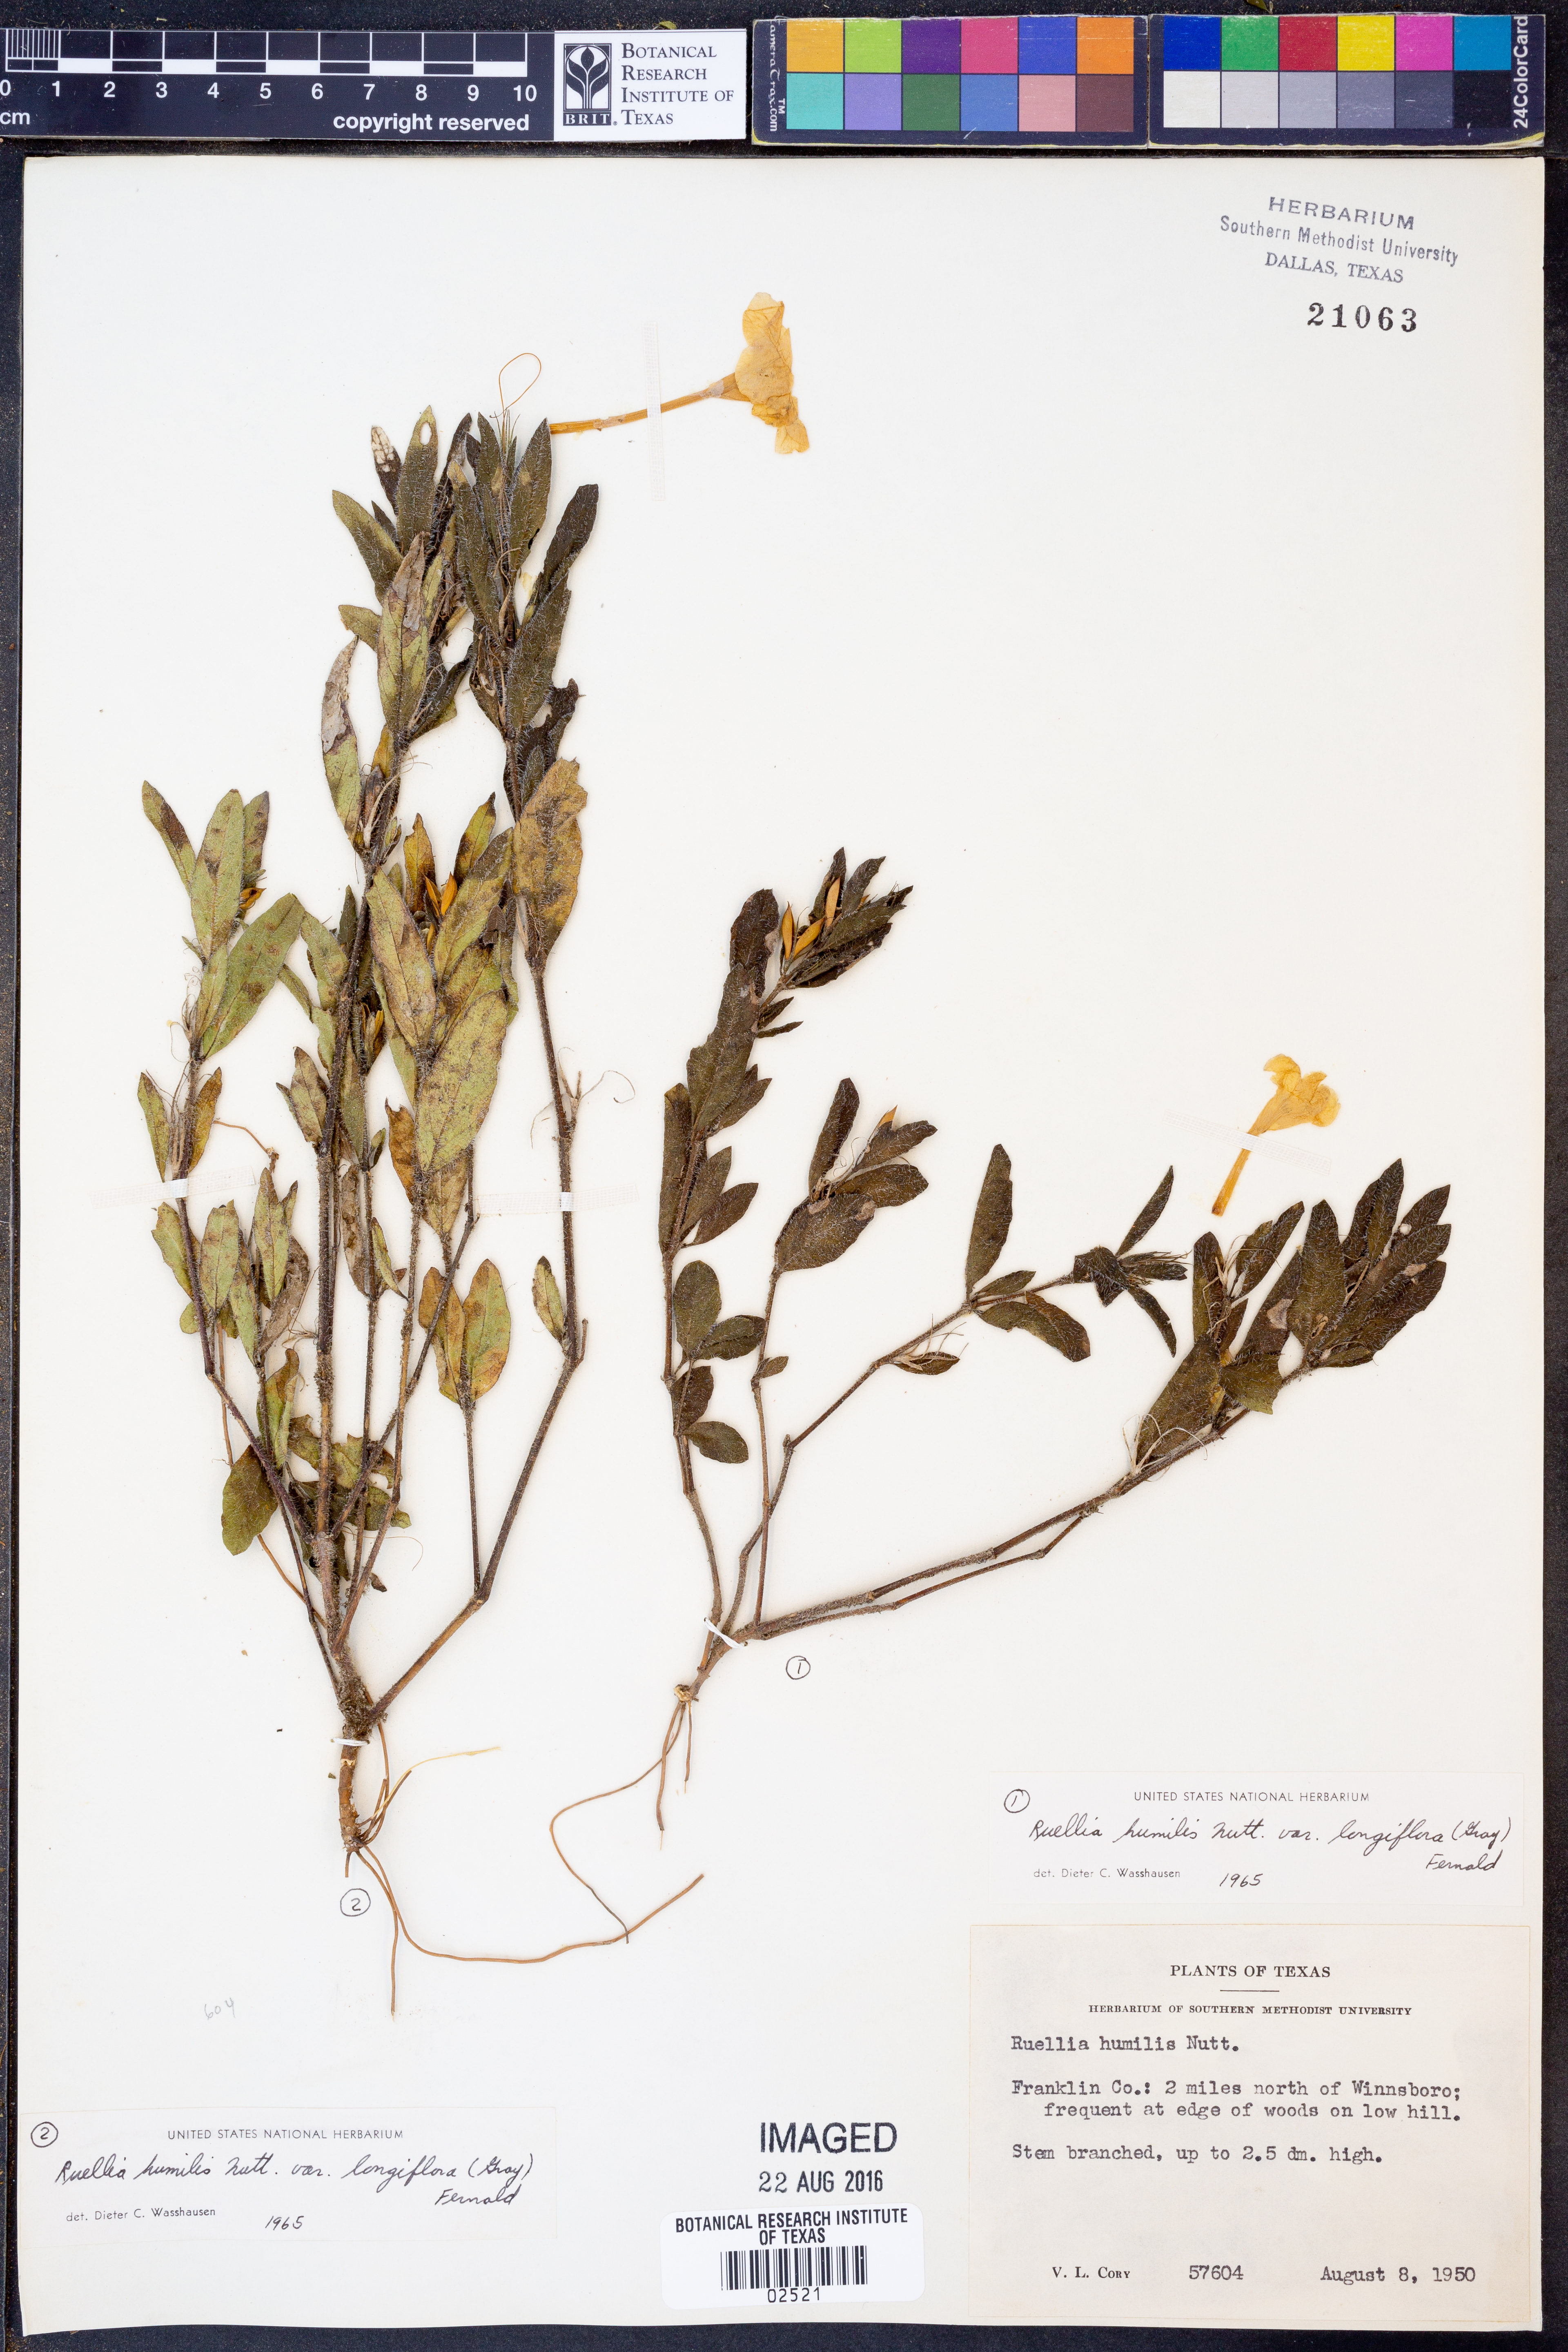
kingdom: Plantae
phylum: Tracheophyta
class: Magnoliopsida
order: Lamiales
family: Acanthaceae
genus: Ruellia
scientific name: Ruellia humilis
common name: Fringe-leaf ruellia
